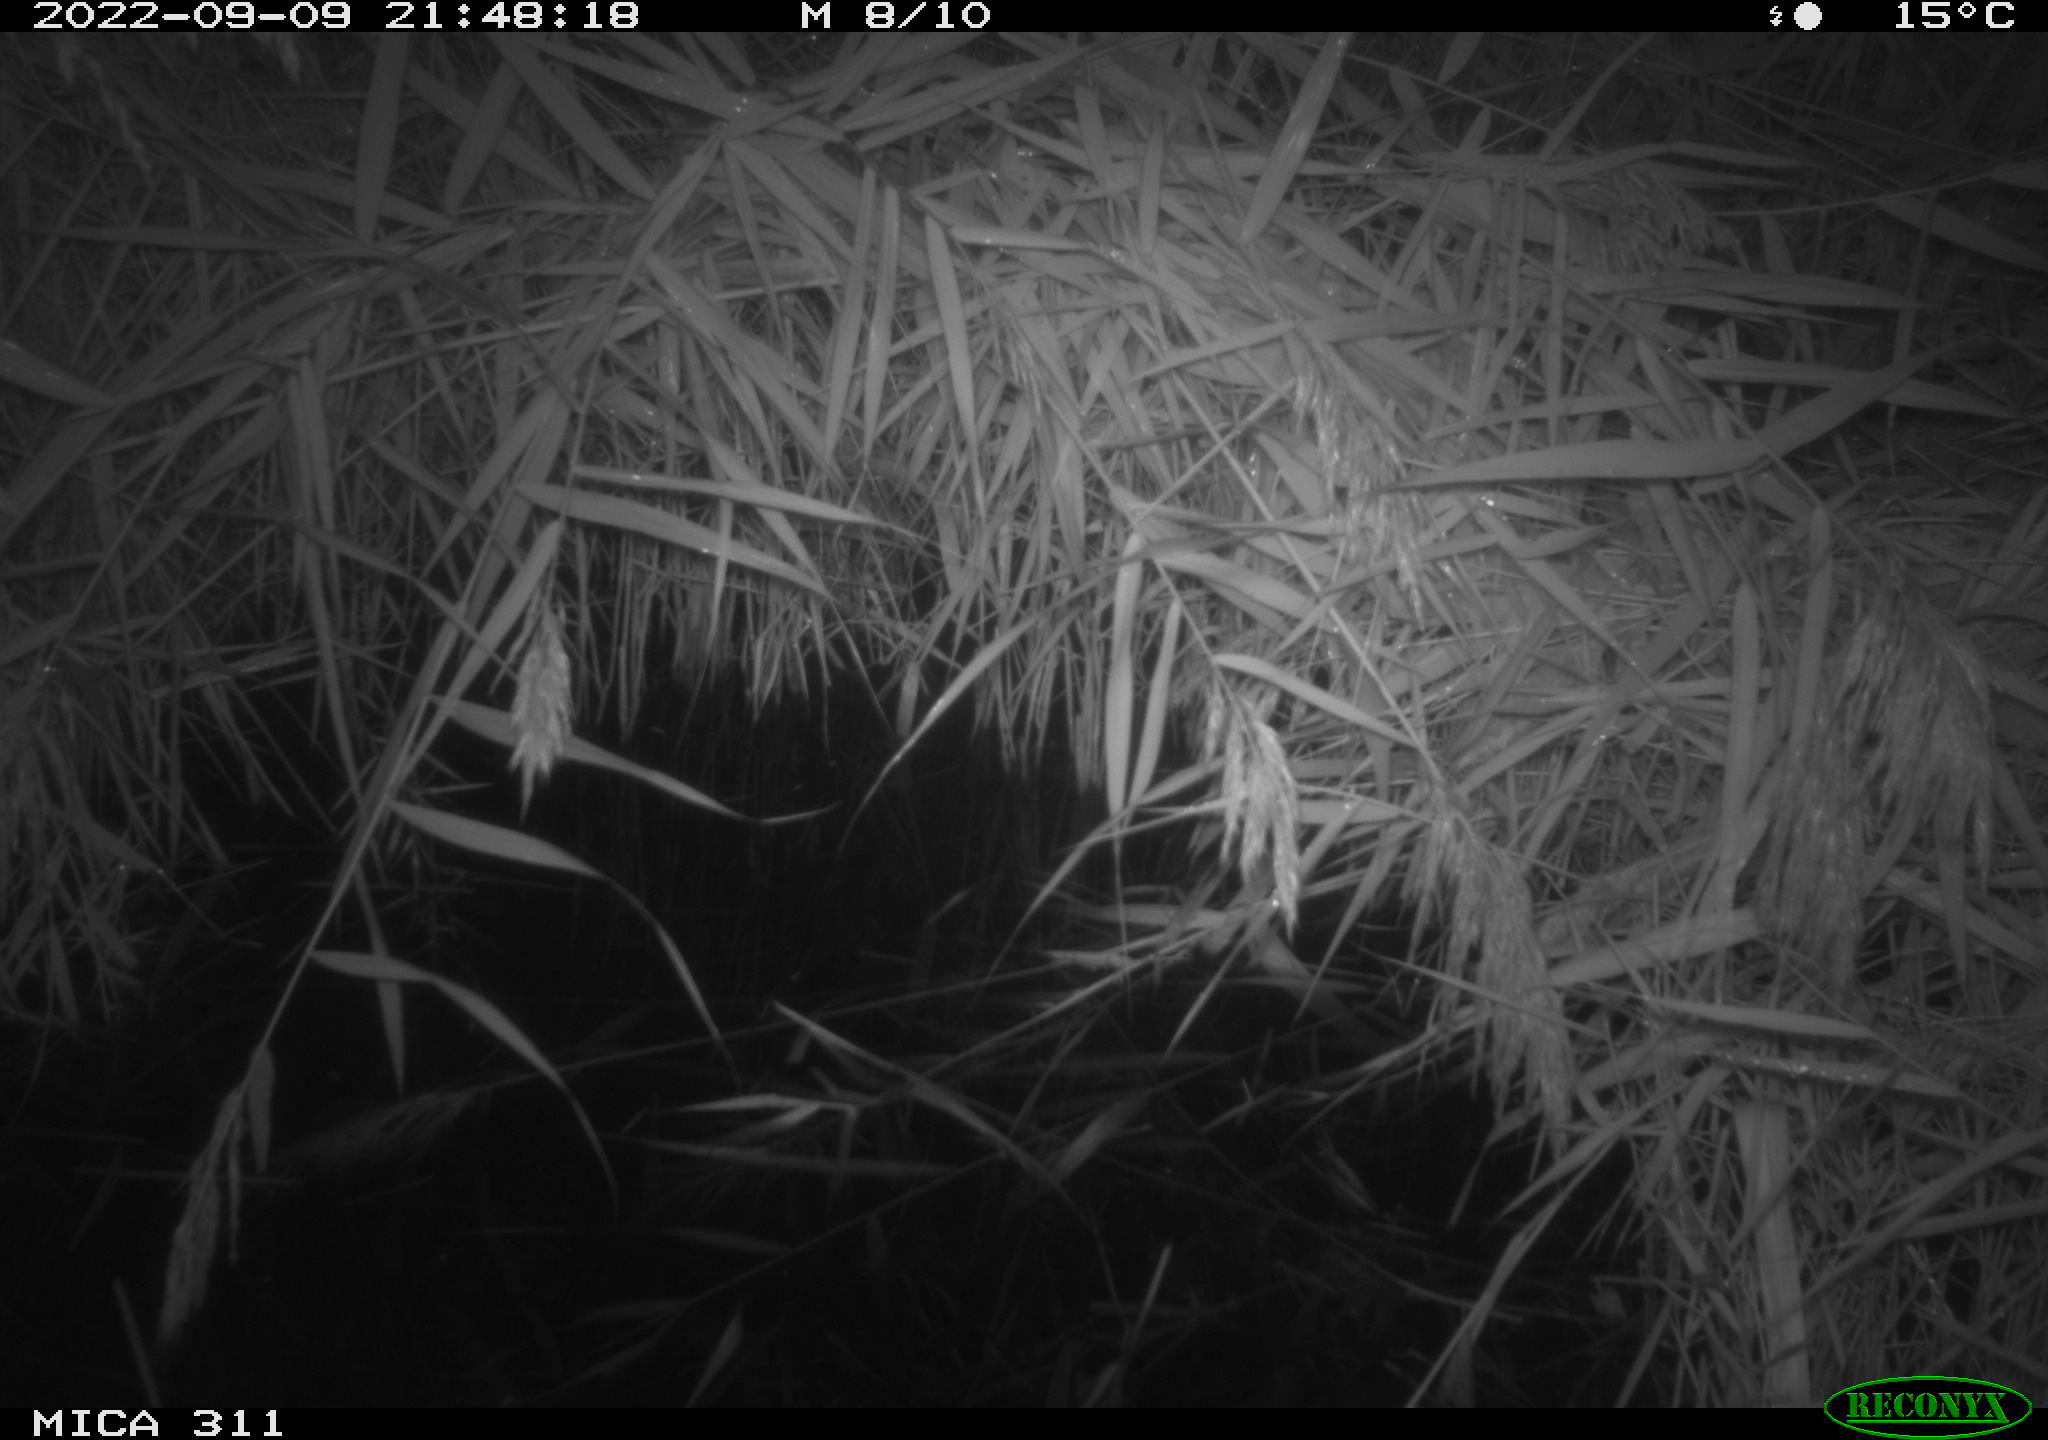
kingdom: Animalia
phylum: Chordata
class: Mammalia
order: Rodentia
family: Muridae
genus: Rattus
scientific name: Rattus norvegicus
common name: Brown rat
